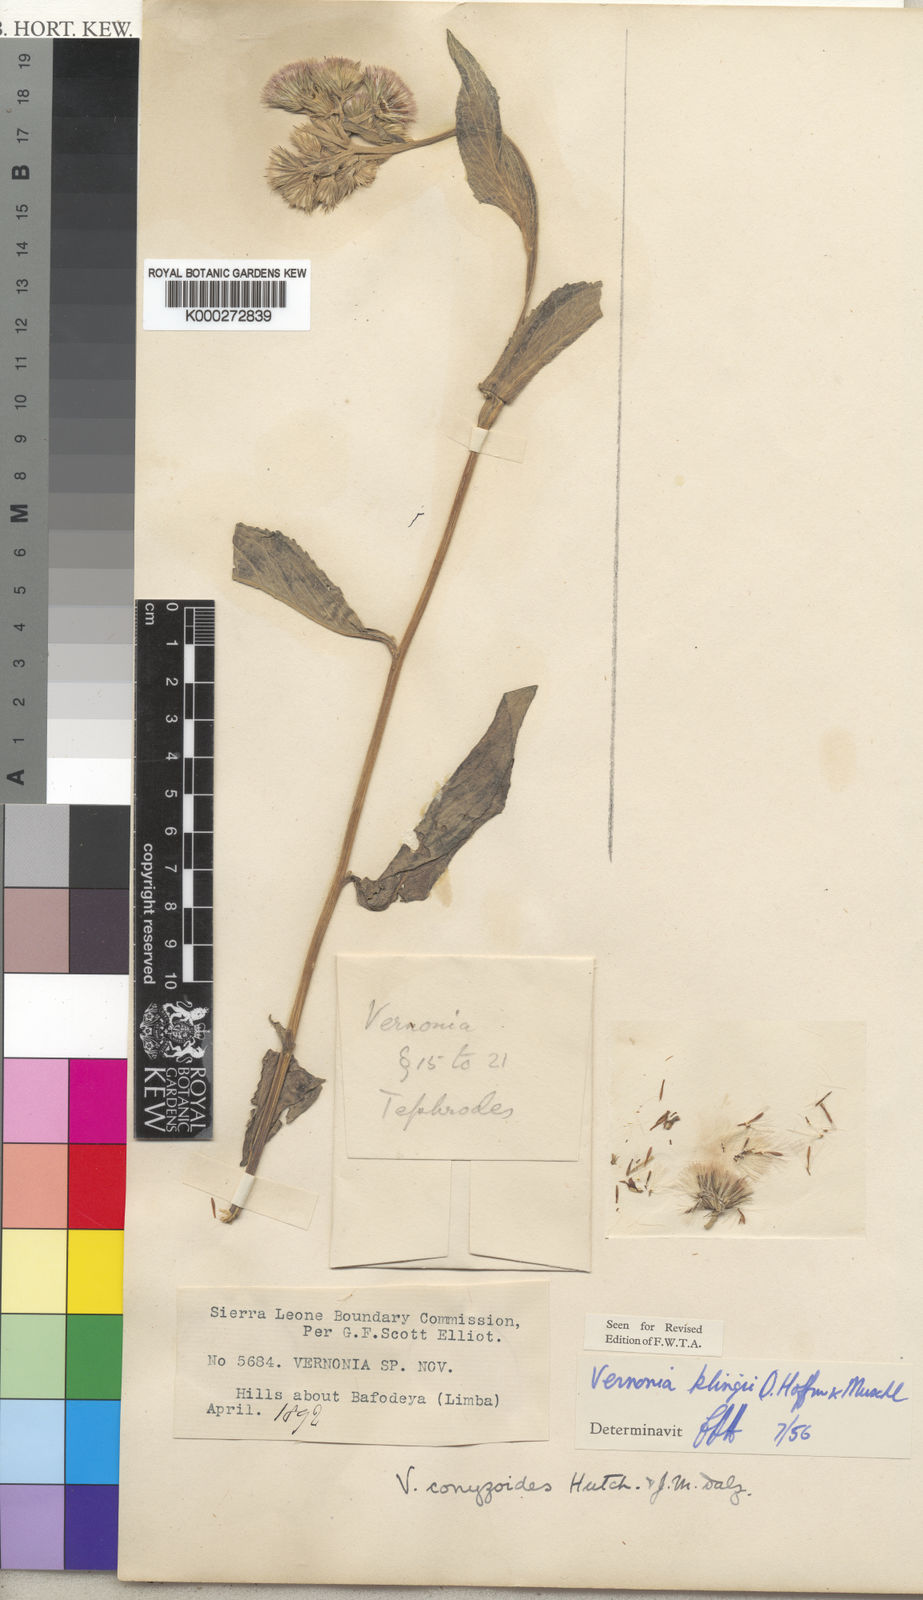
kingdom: Plantae
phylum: Tracheophyta
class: Magnoliopsida
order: Asterales
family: Asteraceae
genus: Vernoniastrum
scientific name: Vernoniastrum klingii
